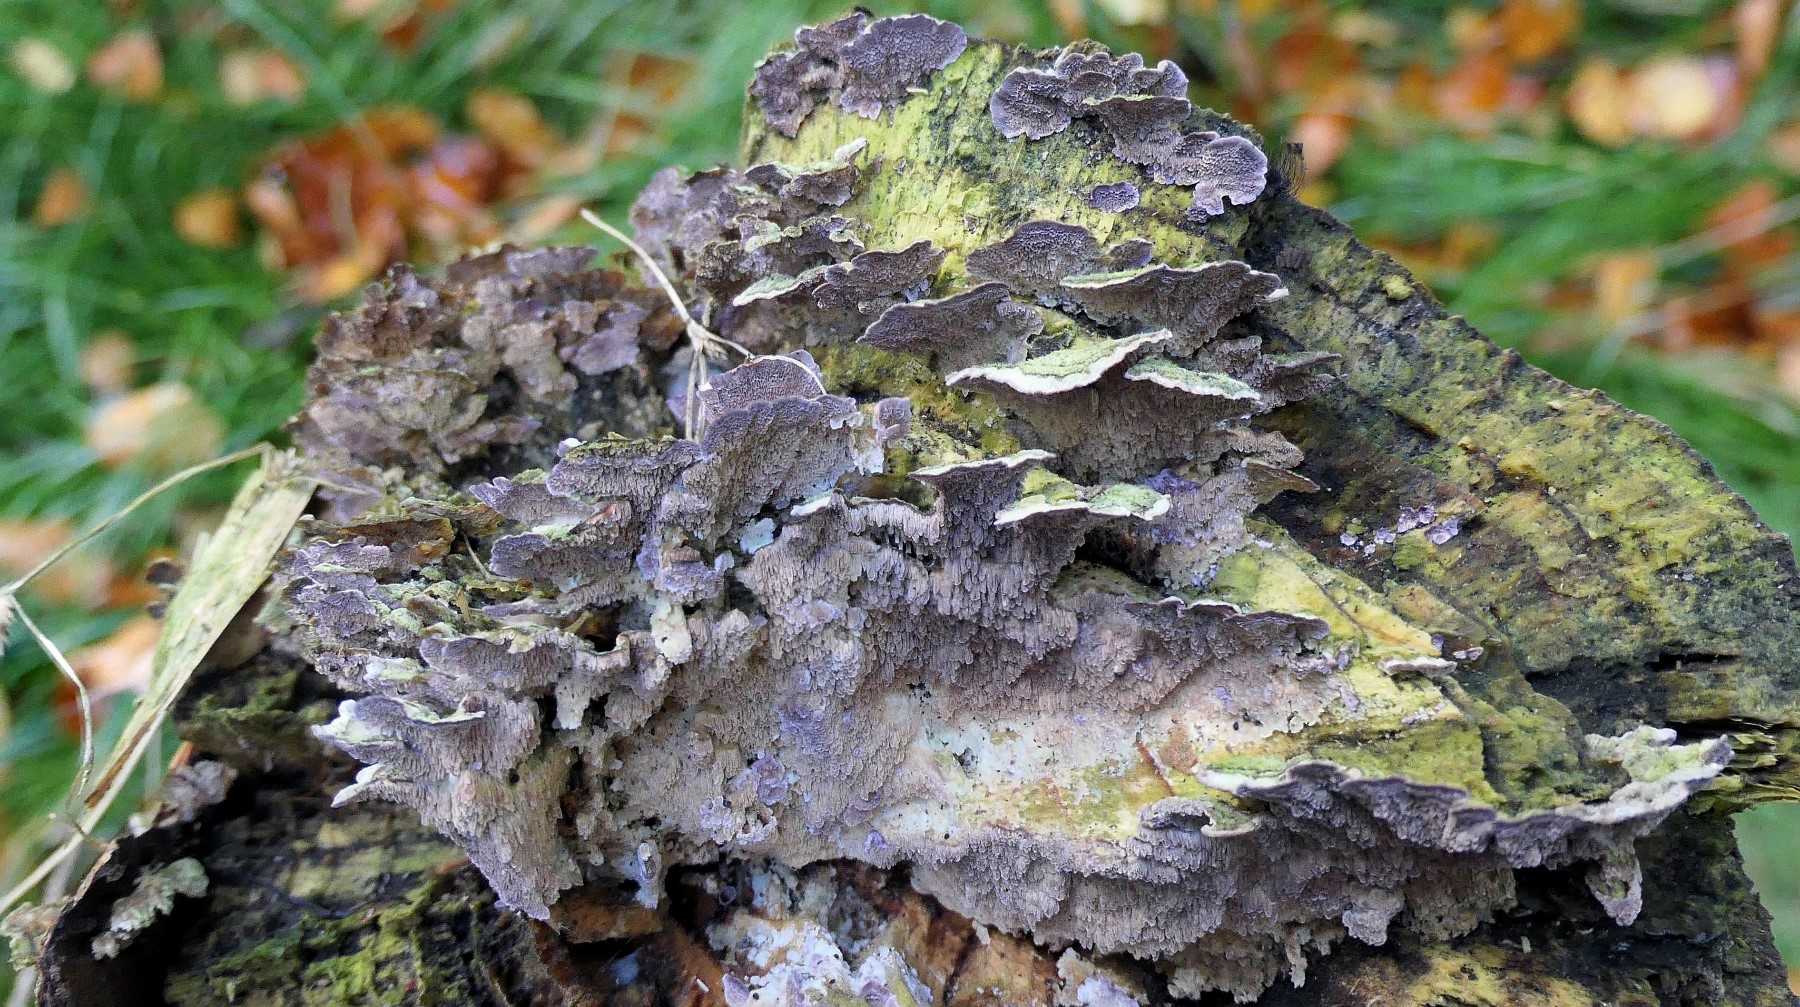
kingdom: Fungi
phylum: Basidiomycota
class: Agaricomycetes
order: Hymenochaetales
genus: Trichaptum
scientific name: Trichaptum fuscoviolaceum
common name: tandet violporesvamp
